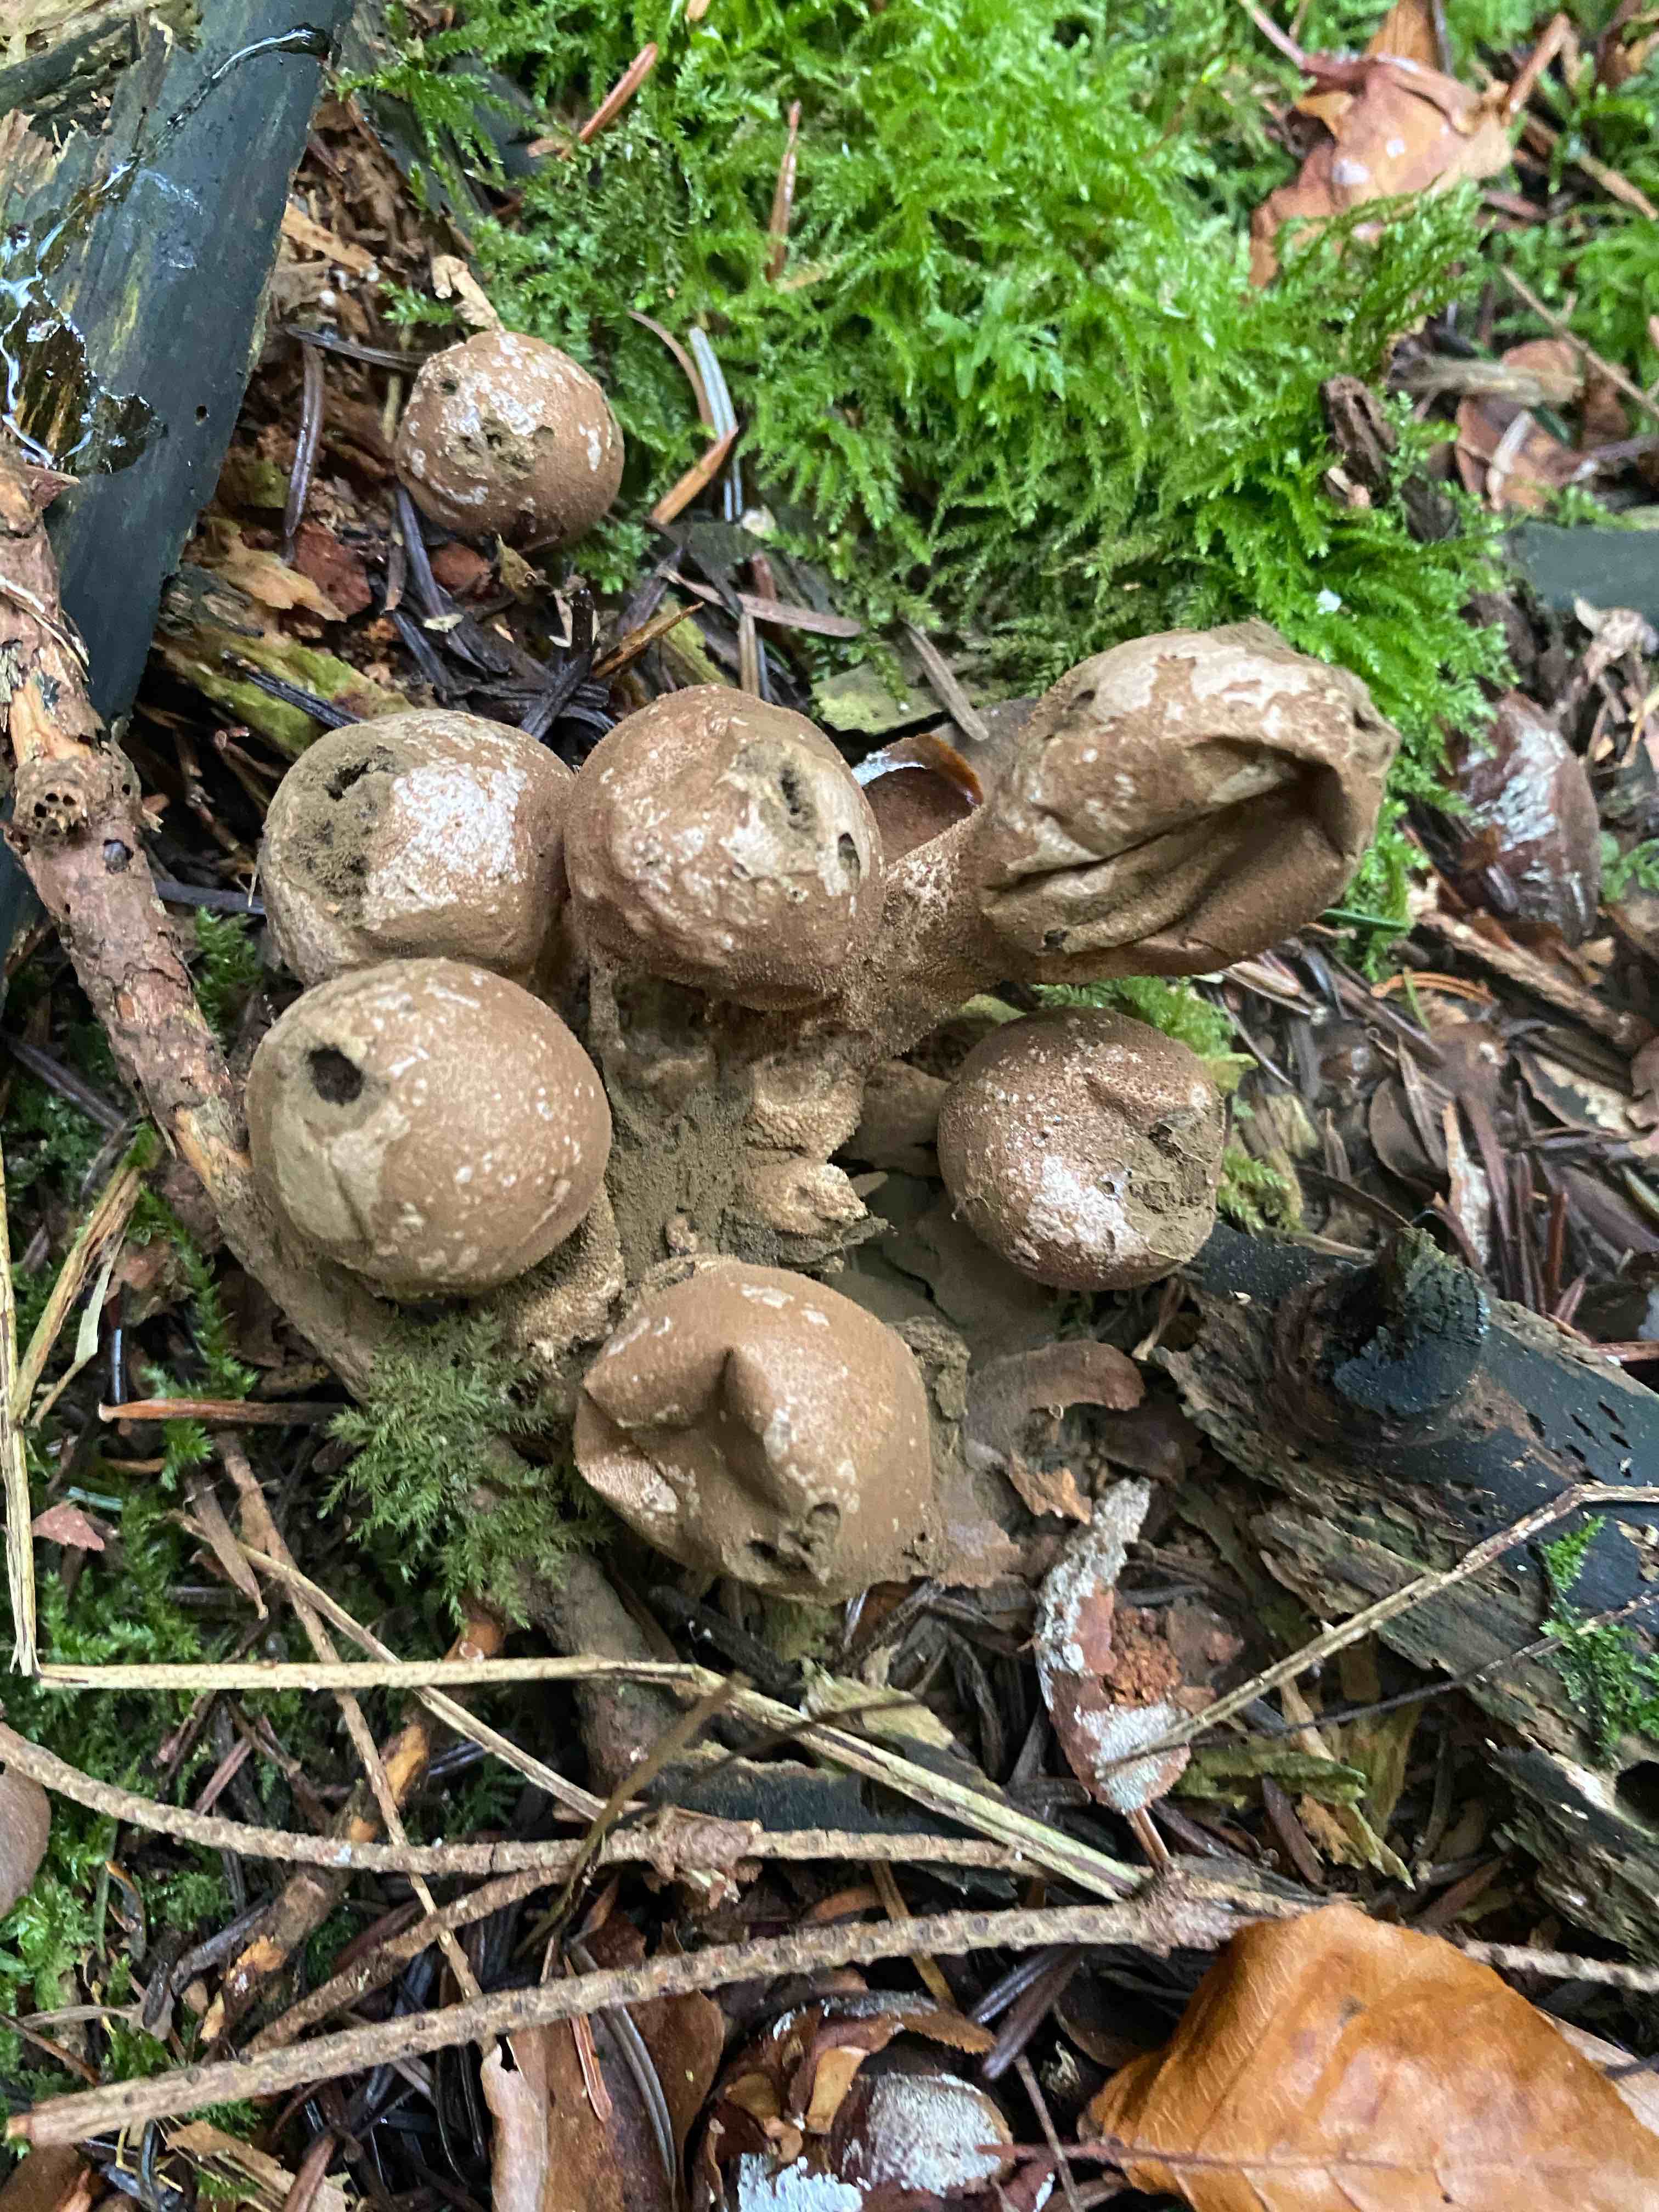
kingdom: Fungi
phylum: Basidiomycota
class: Agaricomycetes
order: Agaricales
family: Lycoperdaceae
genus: Apioperdon
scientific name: Apioperdon pyriforme
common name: pære-støvbold
